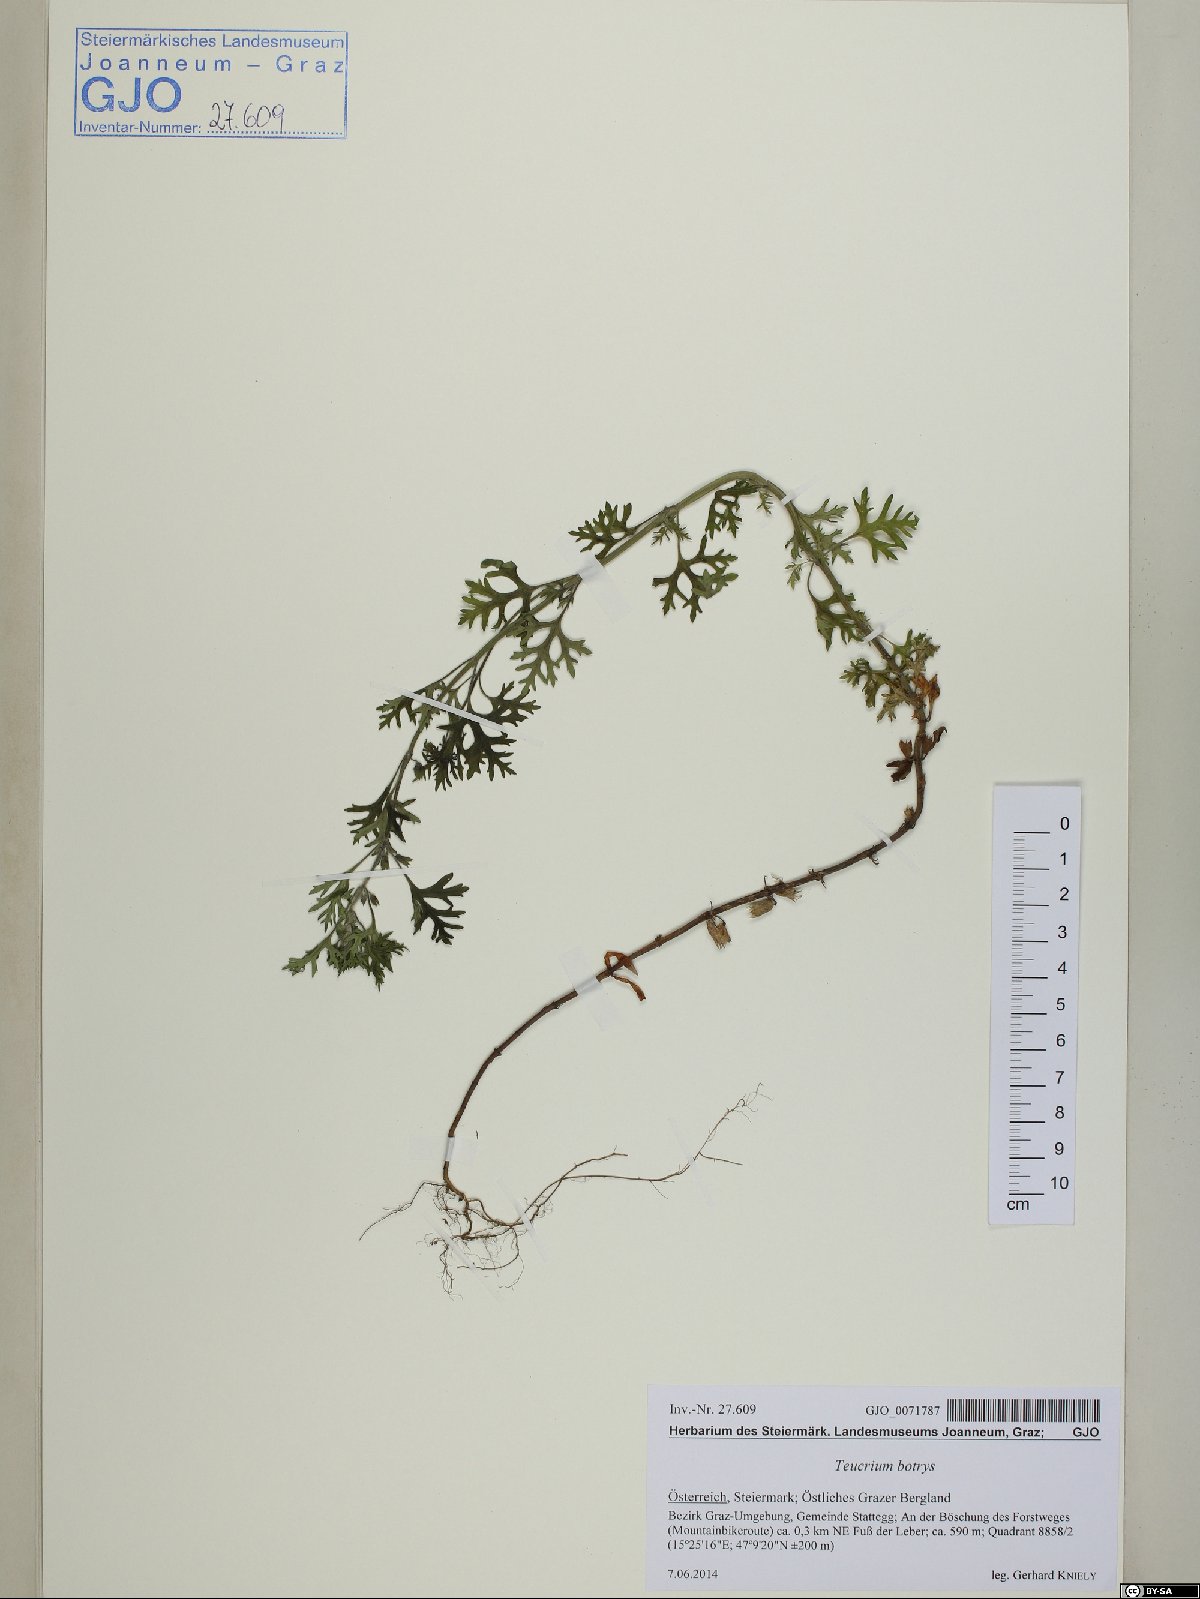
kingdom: Plantae
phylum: Tracheophyta
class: Magnoliopsida
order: Lamiales
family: Lamiaceae
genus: Teucrium
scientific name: Teucrium botrys
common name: Cut-leaved germander
